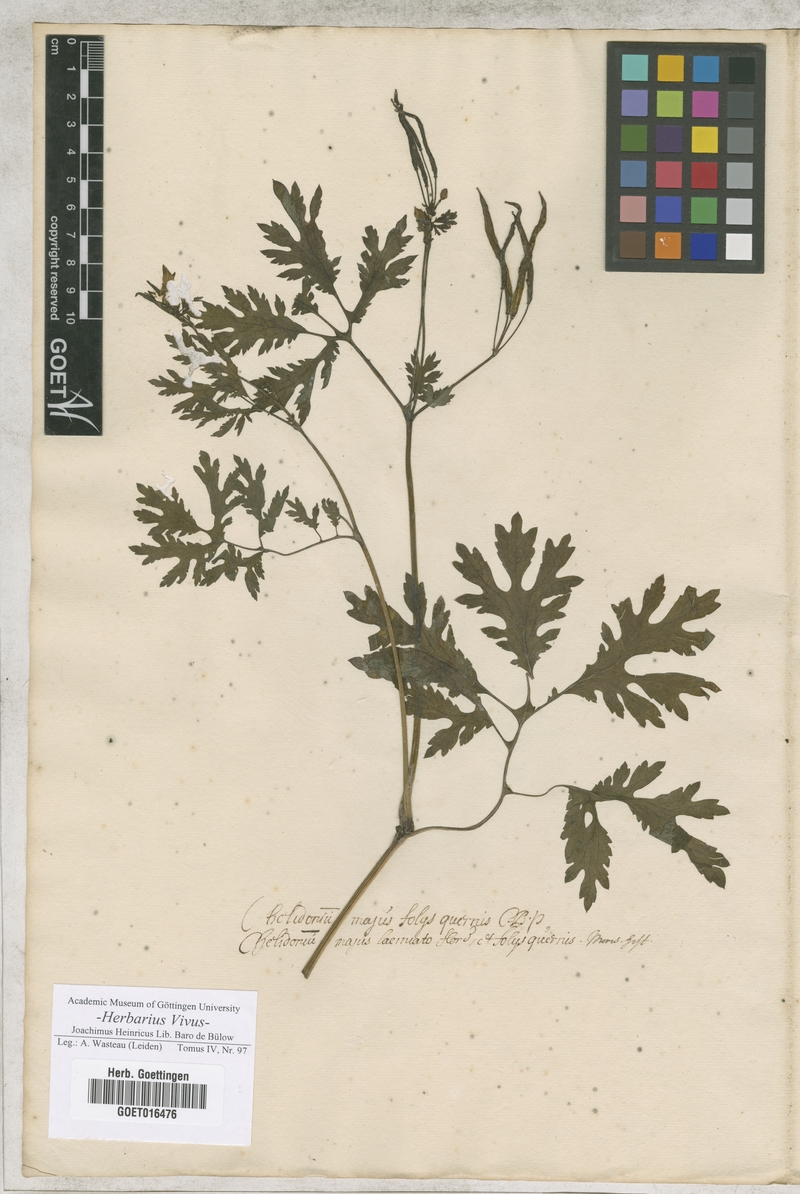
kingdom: Plantae
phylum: Tracheophyta
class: Magnoliopsida
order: Ranunculales
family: Papaveraceae
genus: Chelidonium
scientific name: Chelidonium majus
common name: Greater celandine
